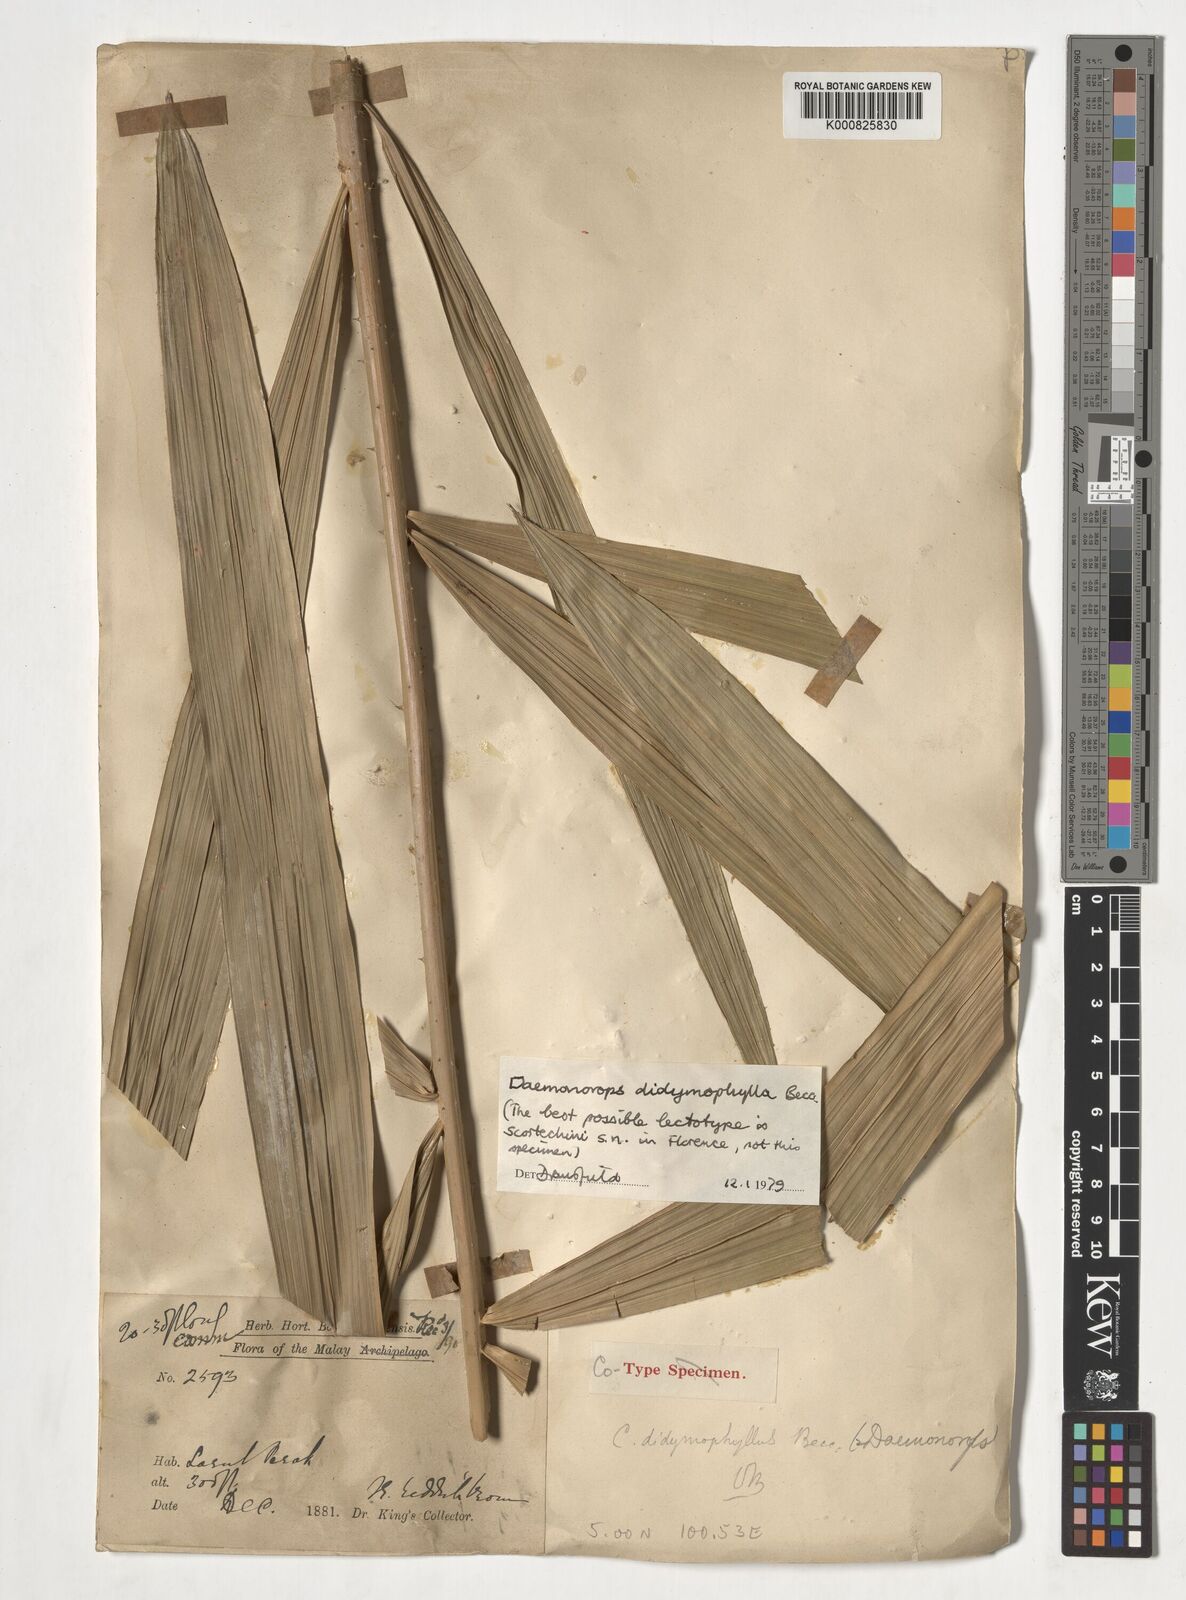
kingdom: Plantae
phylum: Tracheophyta
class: Liliopsida
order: Arecales
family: Arecaceae
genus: Calamus
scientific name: Calamus gracilipes
